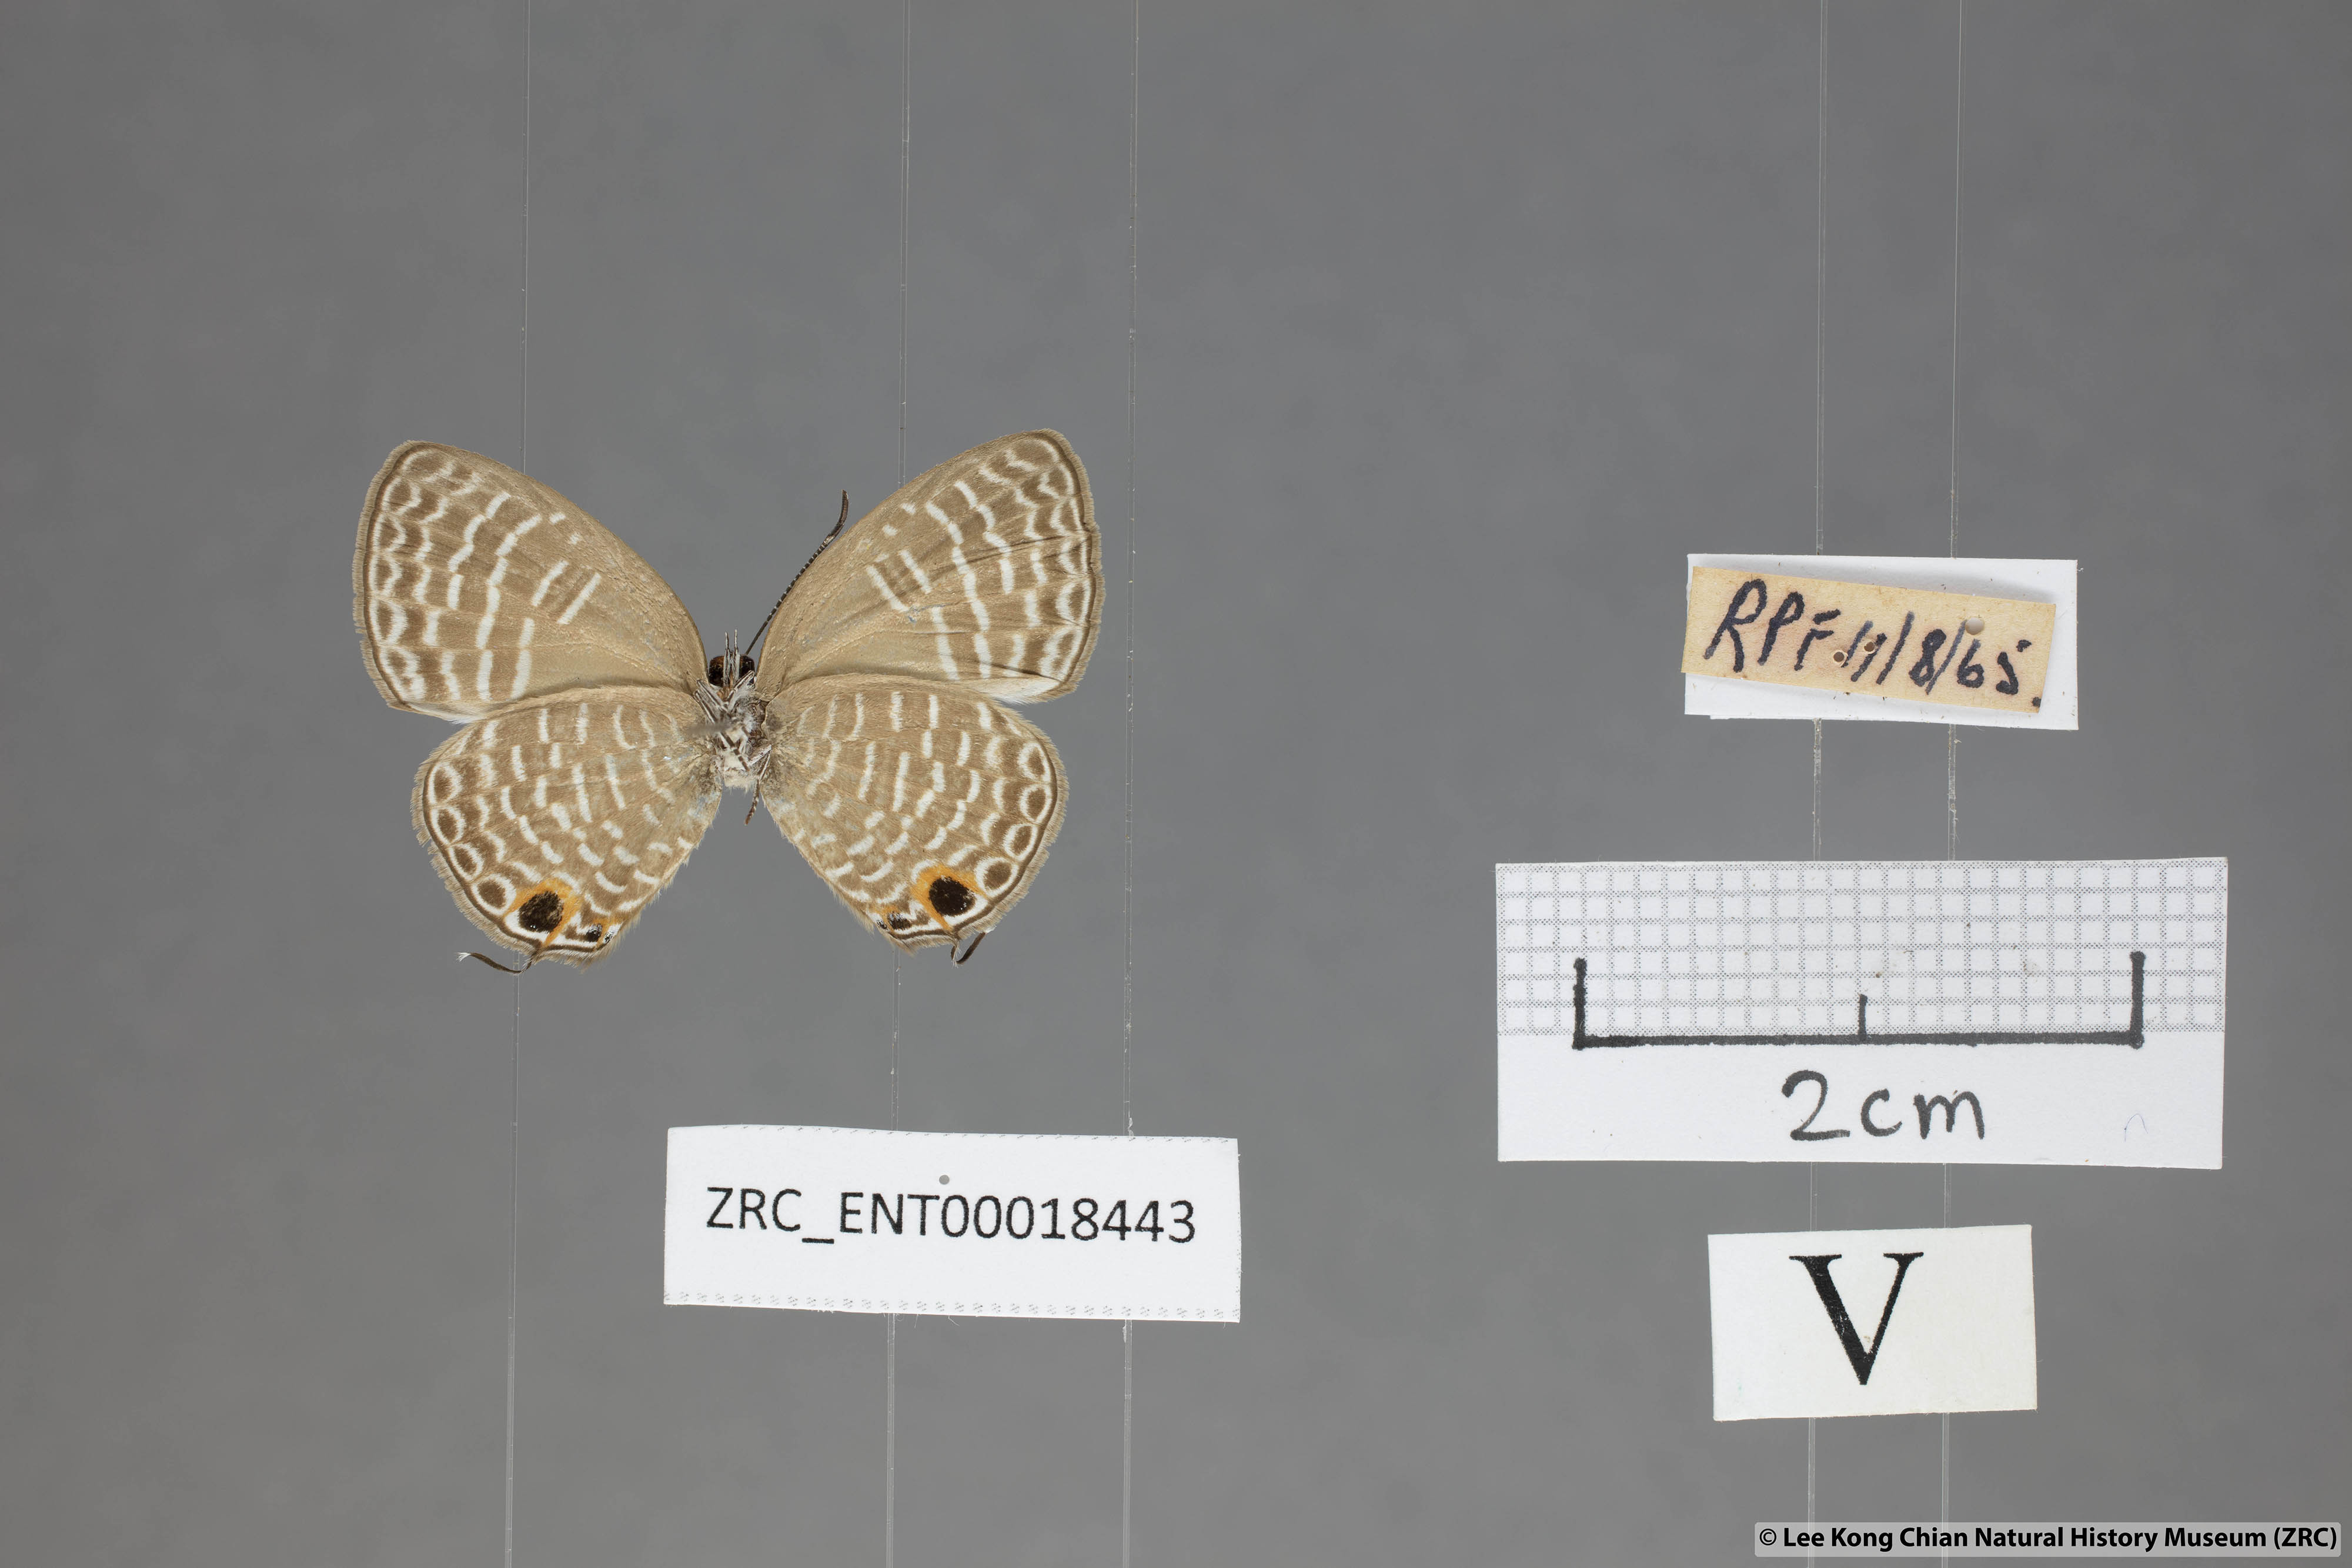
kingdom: Animalia
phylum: Arthropoda
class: Insecta
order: Lepidoptera
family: Lycaenidae
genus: Nacaduba
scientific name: Nacaduba sanaya
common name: Jewel fourline blue
